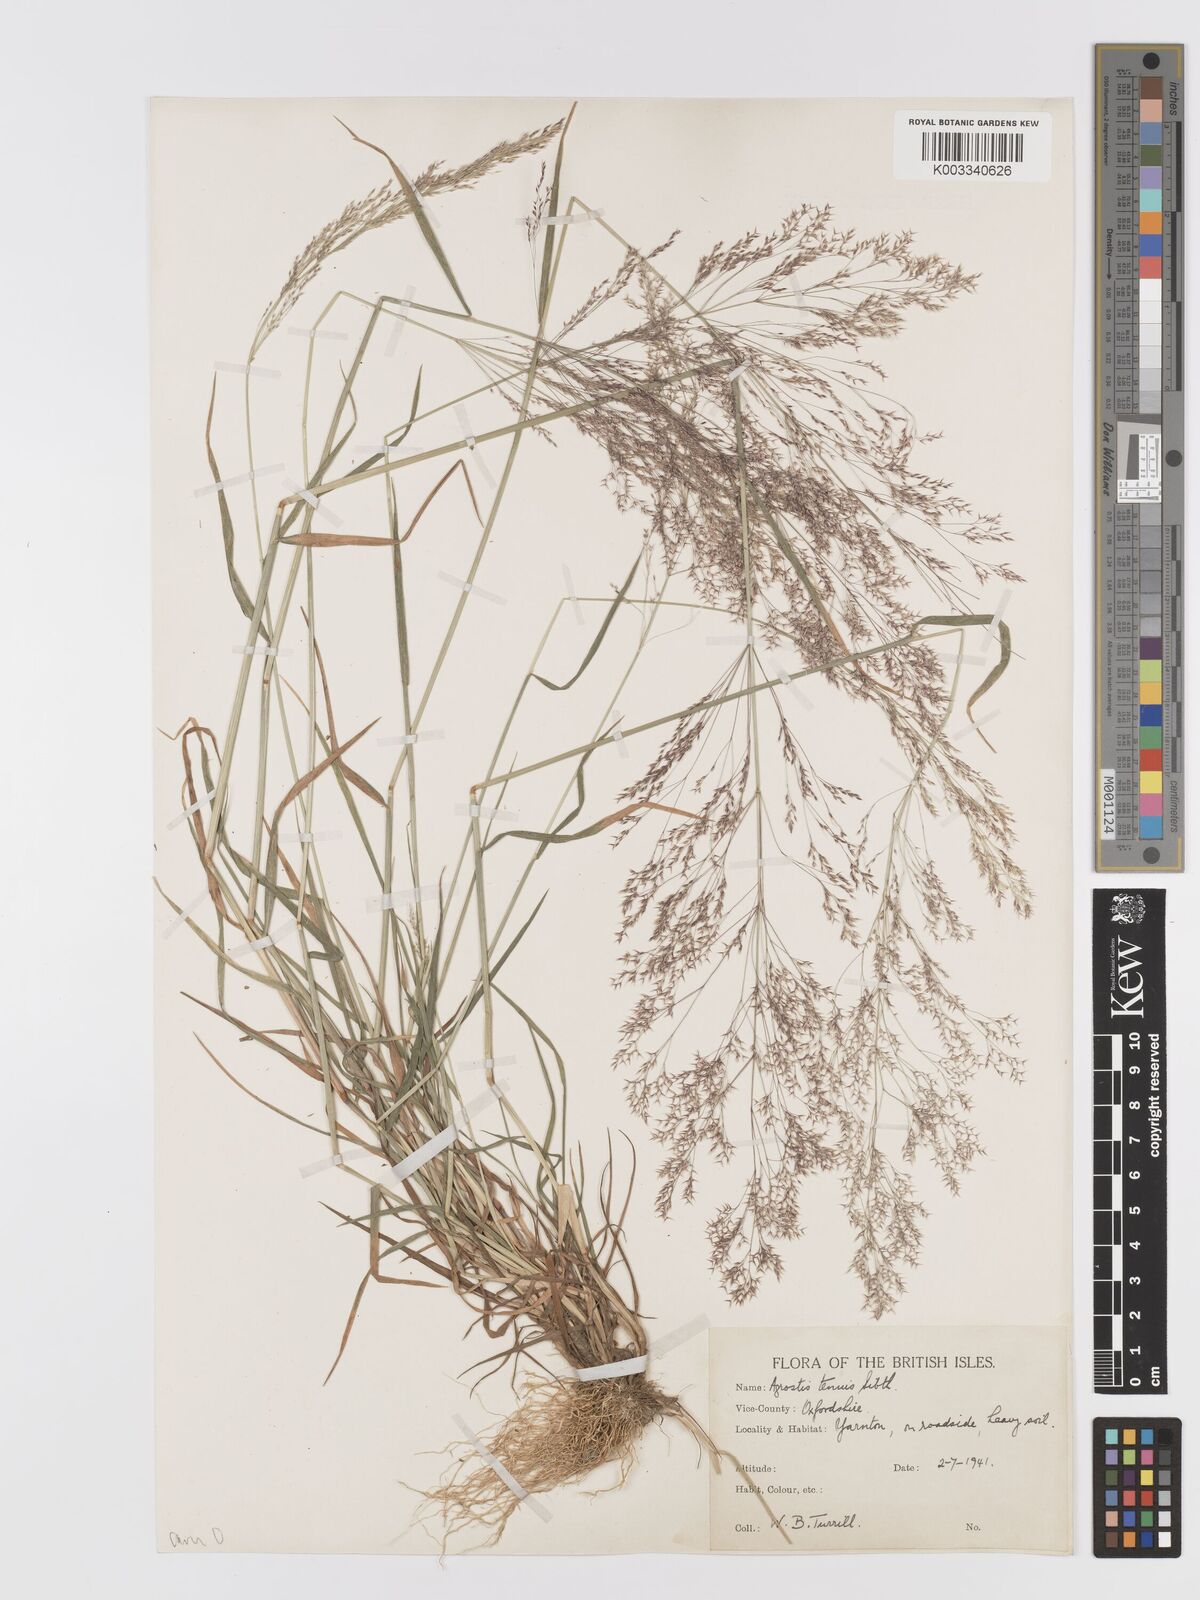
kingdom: Plantae
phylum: Tracheophyta
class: Liliopsida
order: Poales
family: Poaceae
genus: Agrostis
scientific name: Agrostis capillaris
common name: Colonial bentgrass
